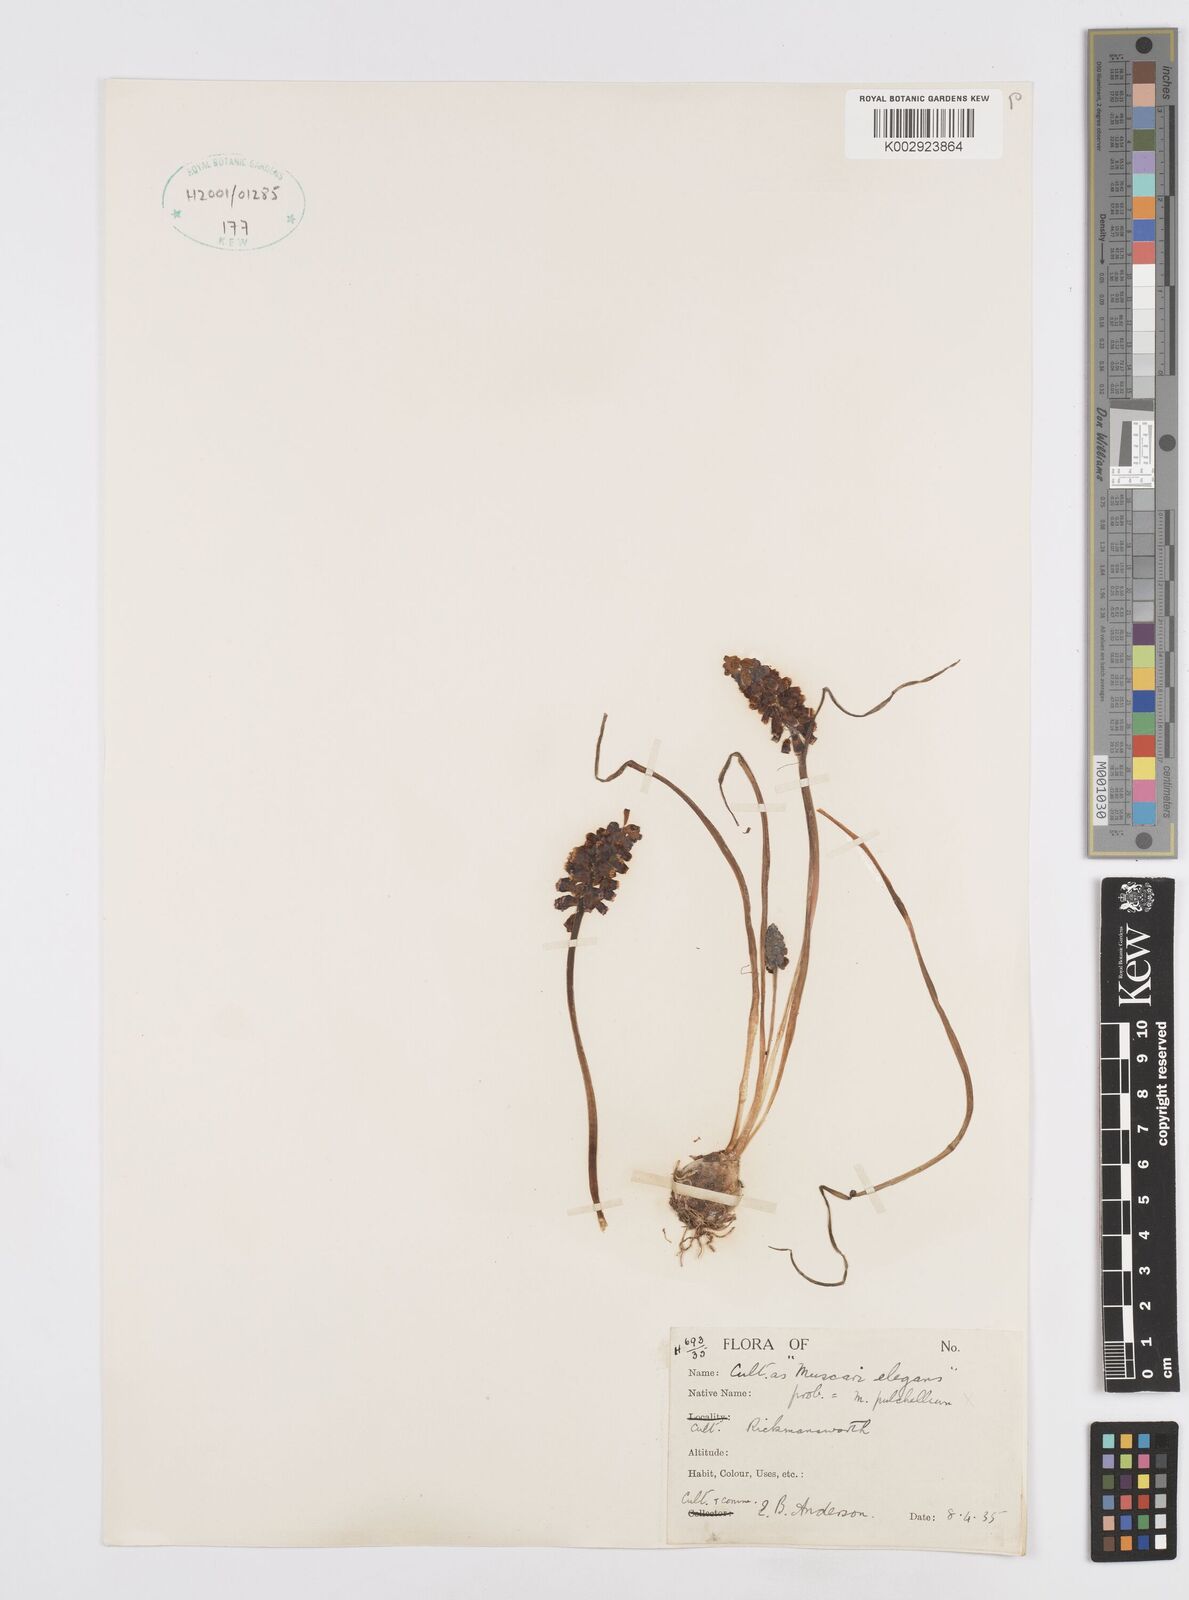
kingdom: Plantae
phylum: Tracheophyta
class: Liliopsida
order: Asparagales
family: Asparagaceae
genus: Muscari
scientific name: Muscari
